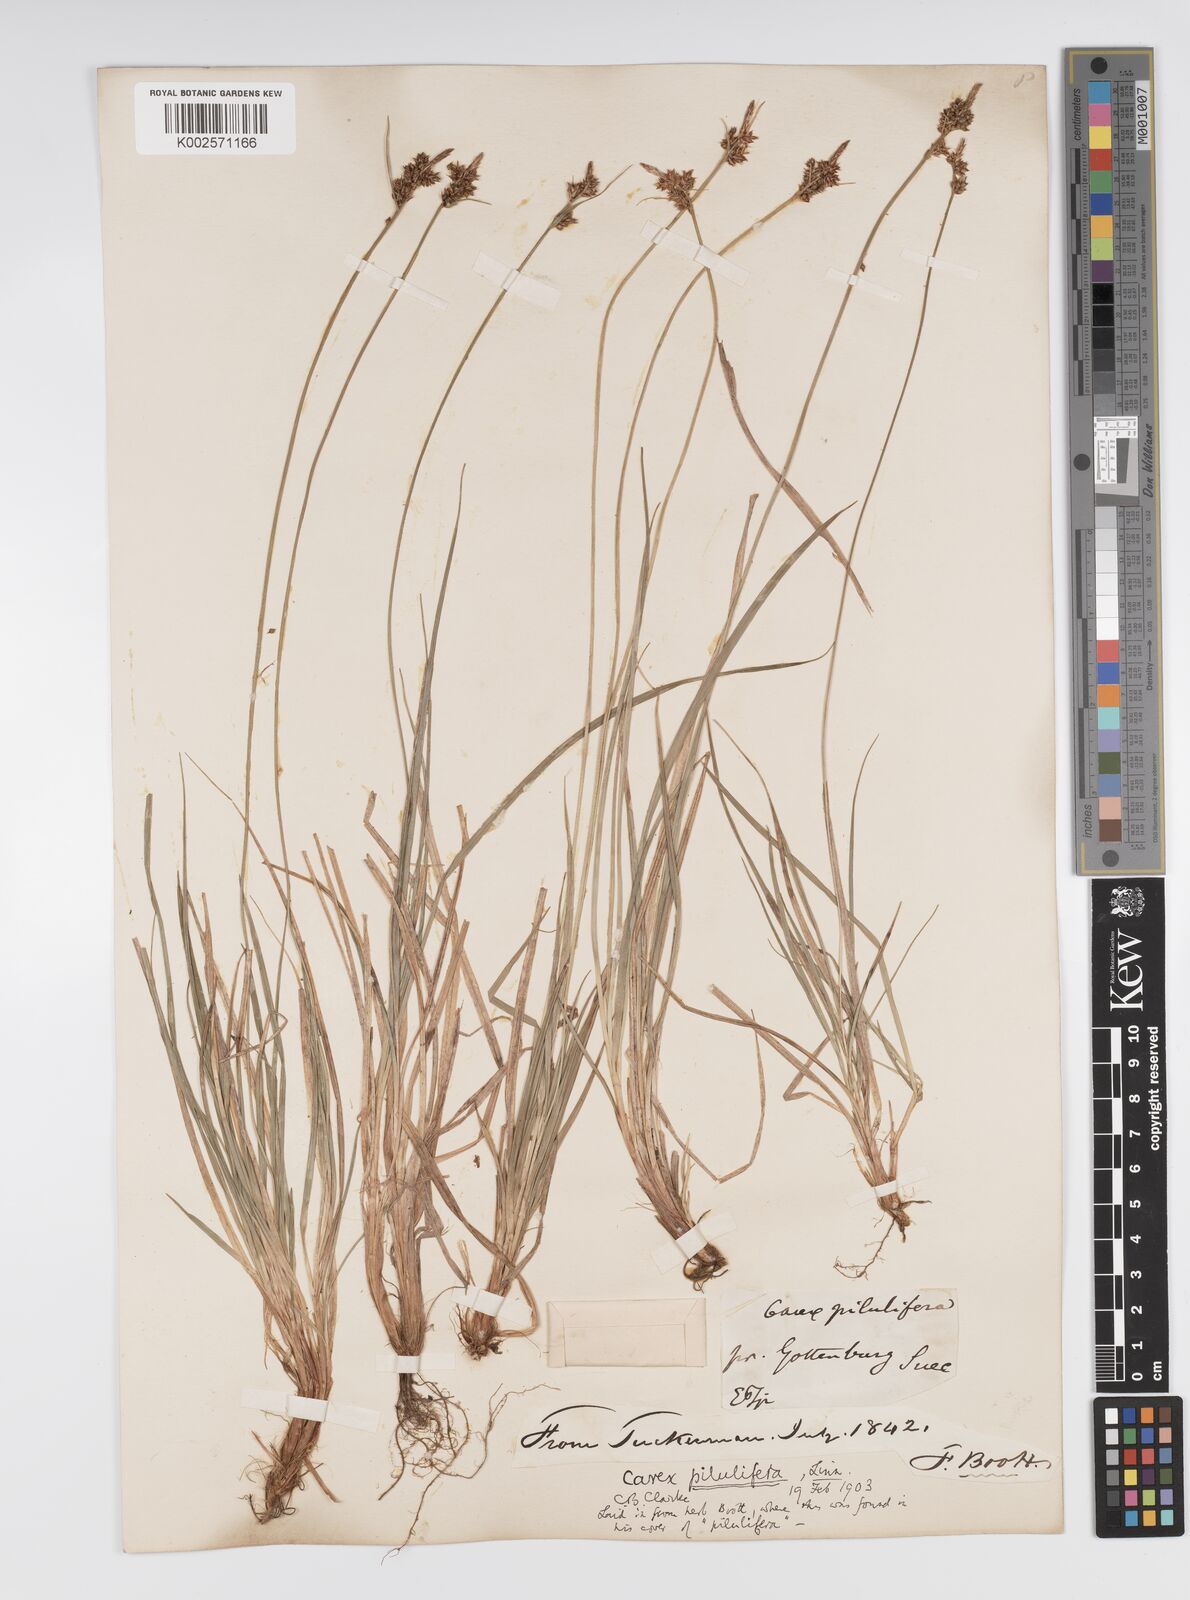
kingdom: Plantae
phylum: Tracheophyta
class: Liliopsida
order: Poales
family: Cyperaceae
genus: Carex
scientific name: Carex pilulifera
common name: Pill sedge
